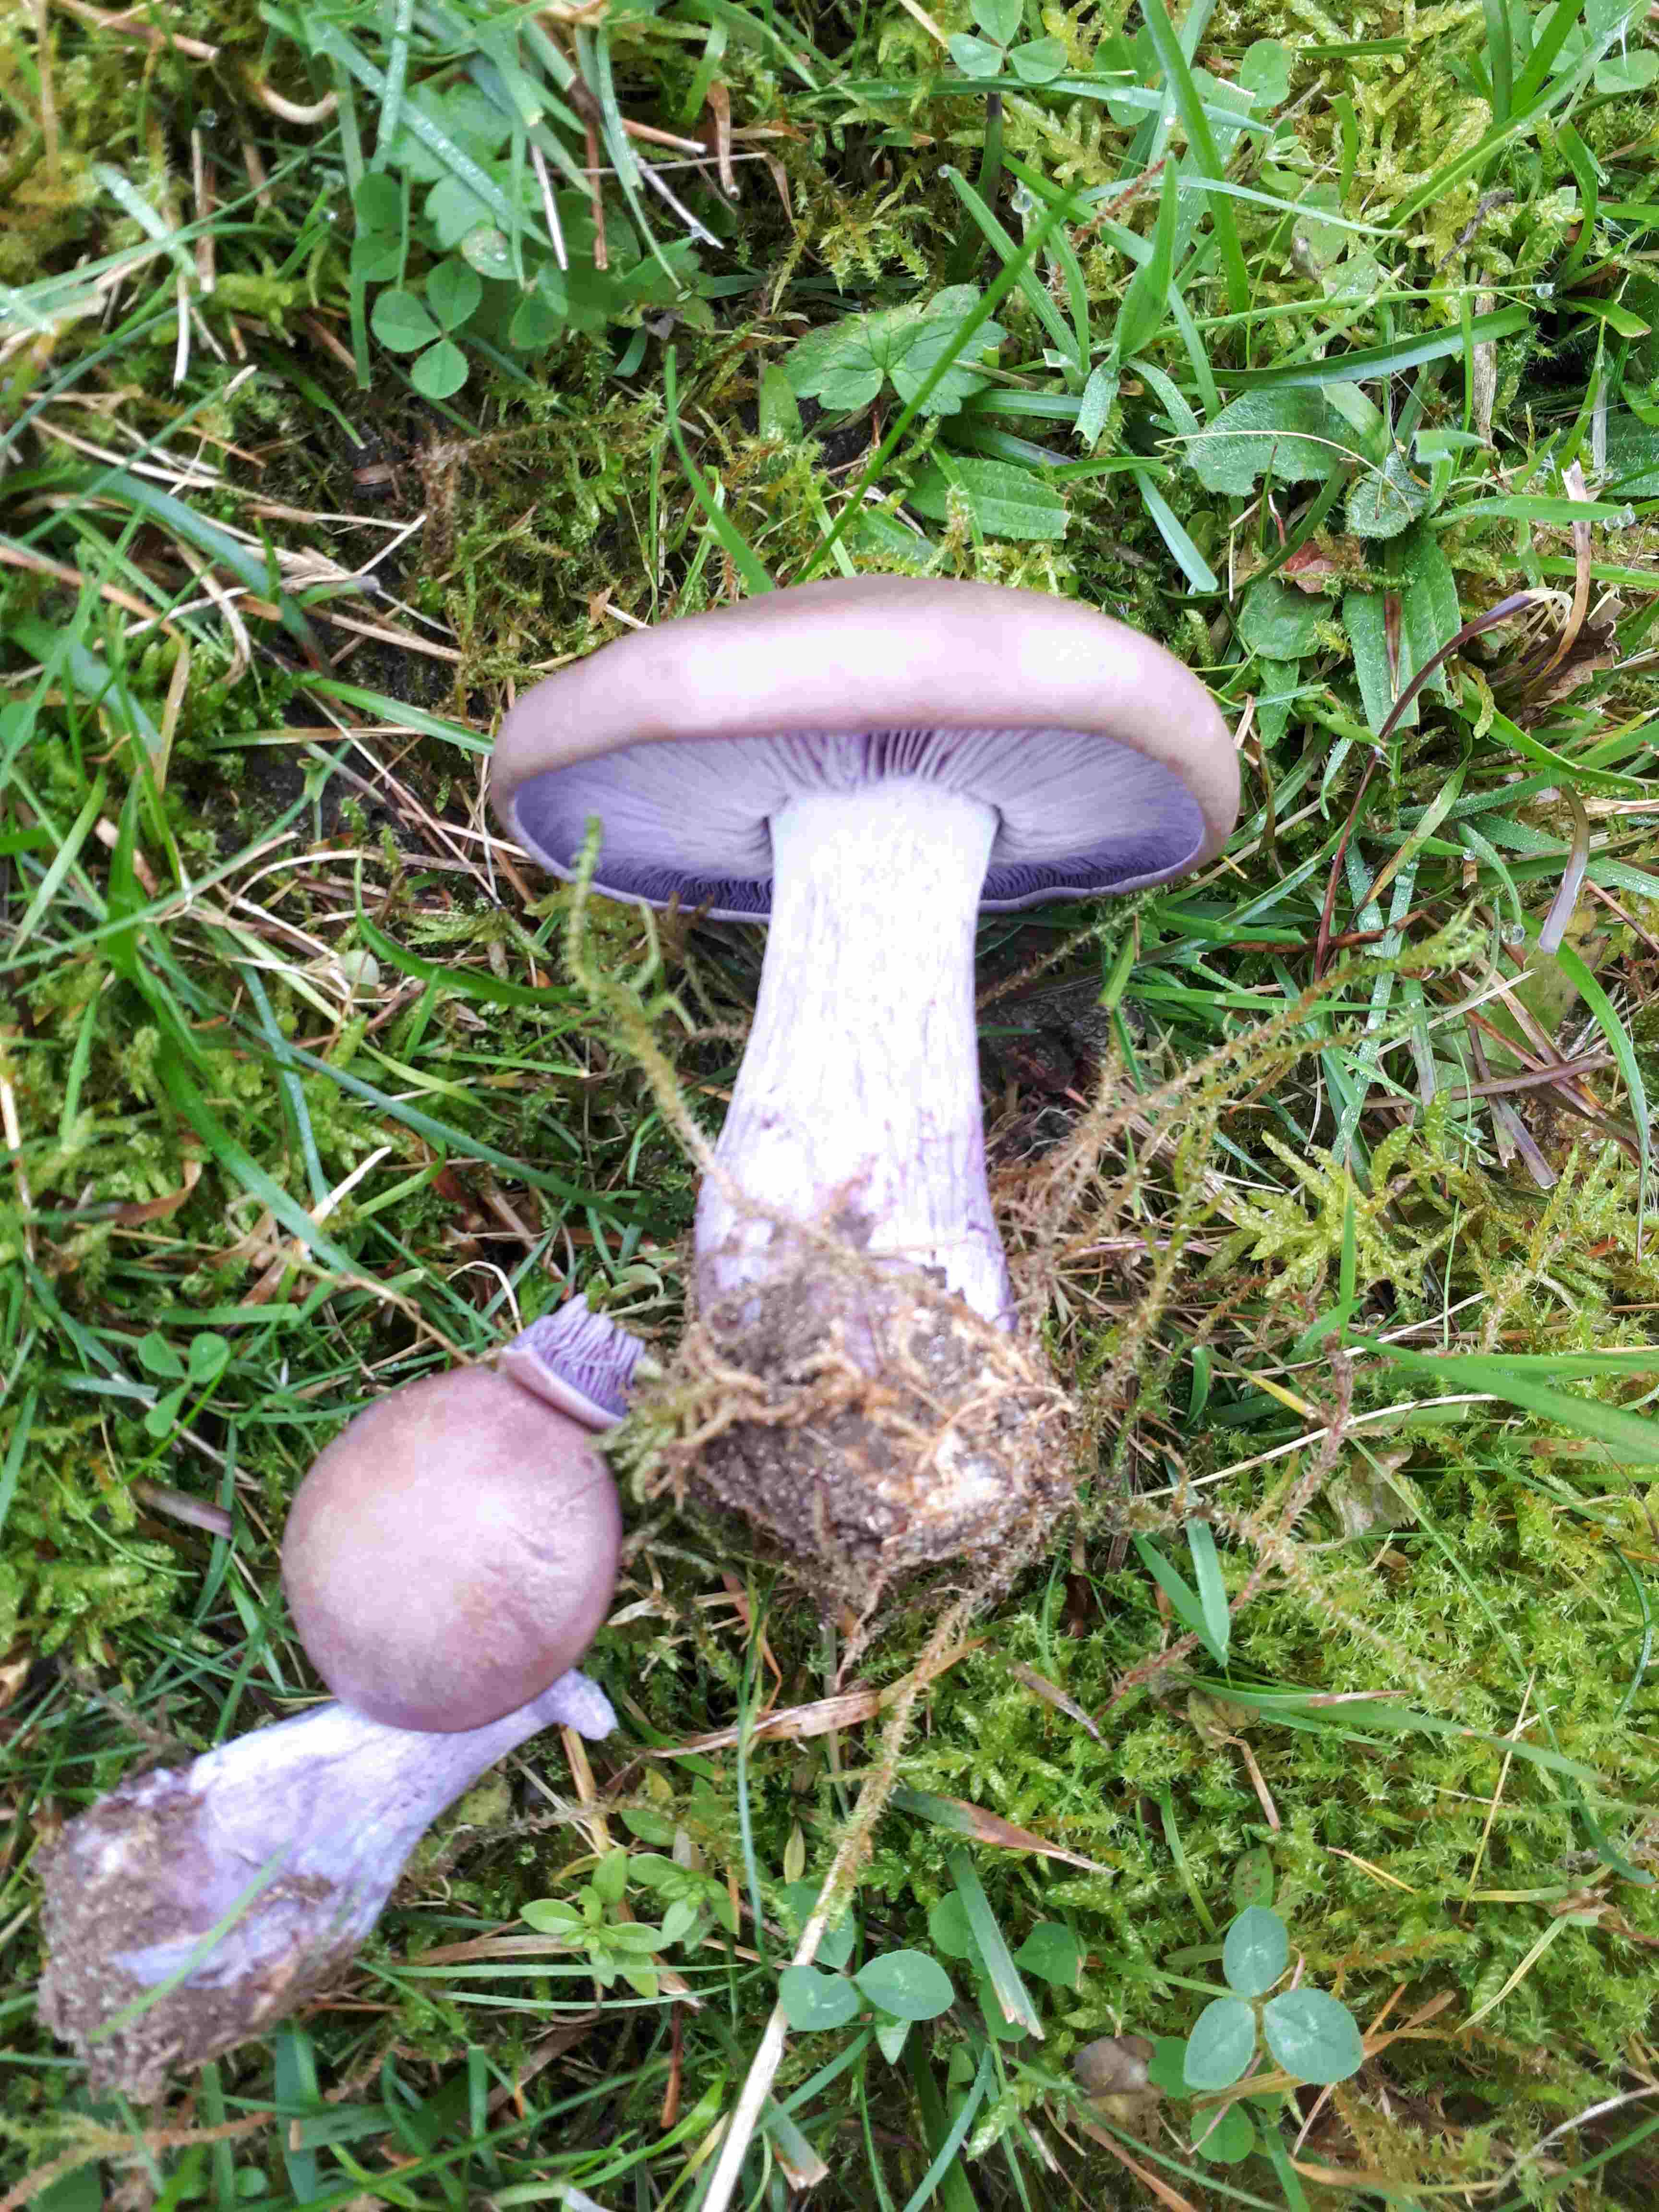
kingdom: Fungi
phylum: Basidiomycota
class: Agaricomycetes
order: Agaricales
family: Tricholomataceae
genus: Lepista
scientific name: Lepista nuda
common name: violet hekseringshat
